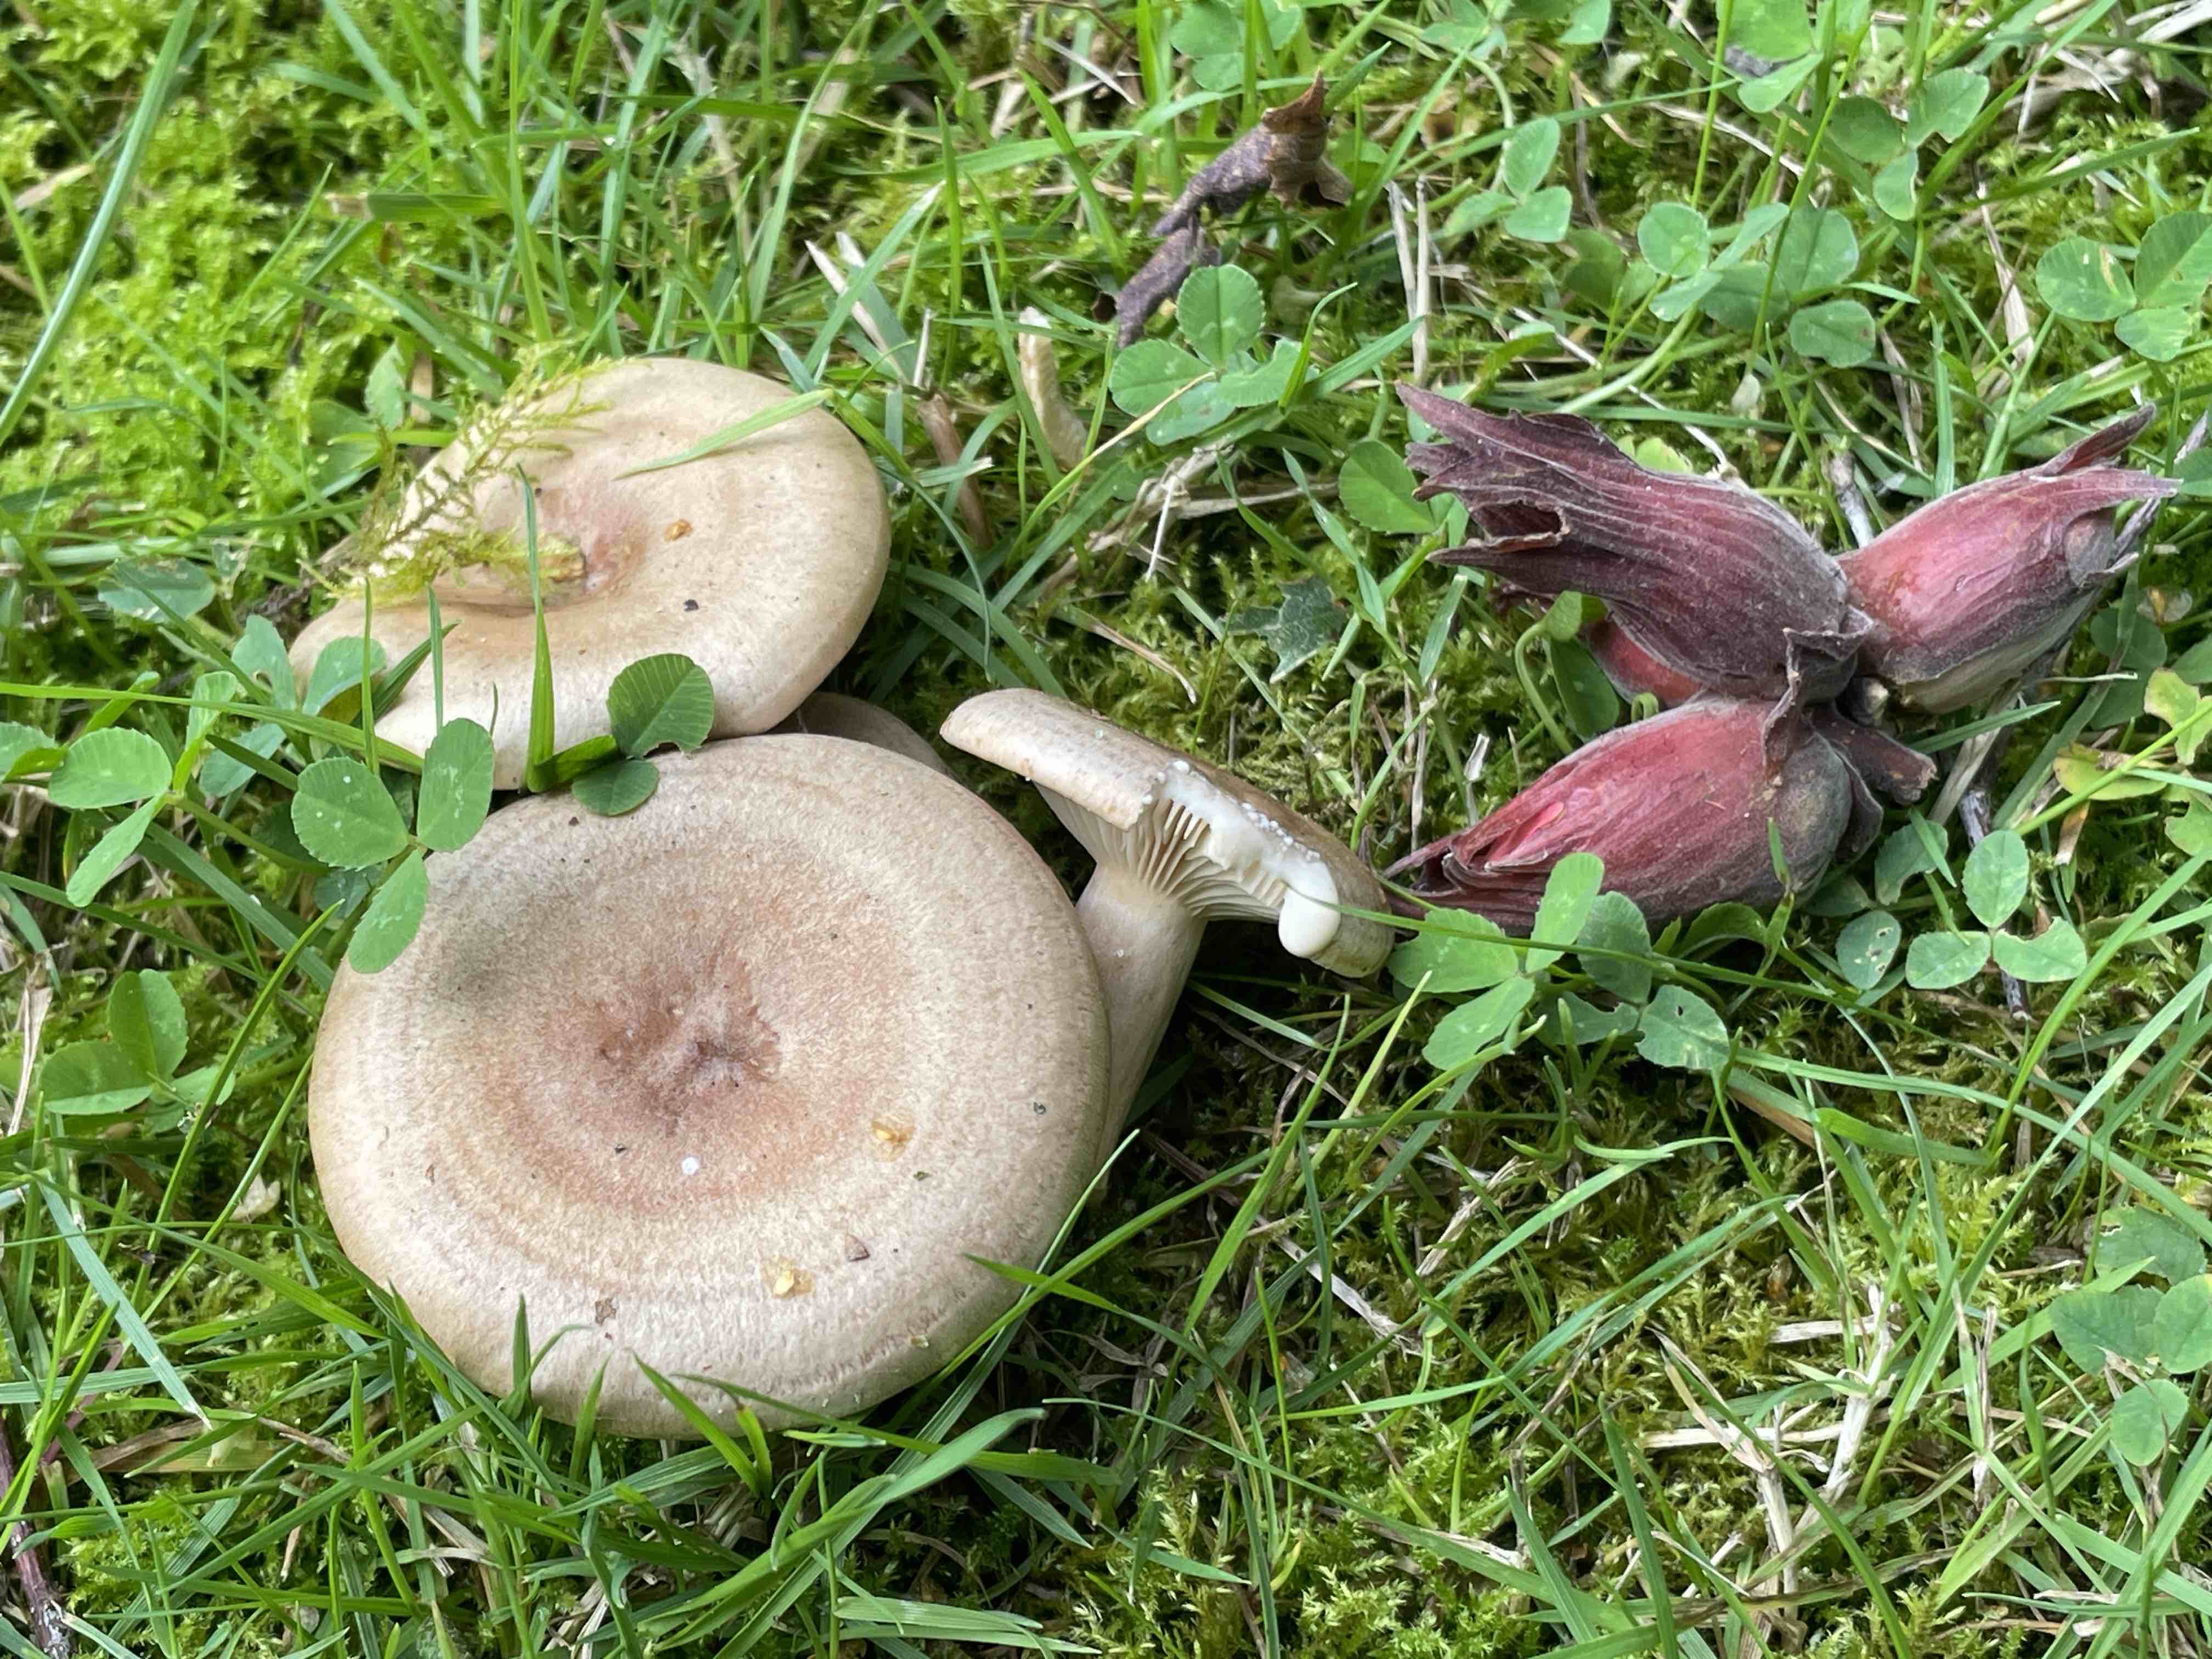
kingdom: Fungi
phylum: Basidiomycota
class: Agaricomycetes
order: Russulales
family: Russulaceae
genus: Lactarius
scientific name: Lactarius pyrogalus
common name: hassel-mælkehat
